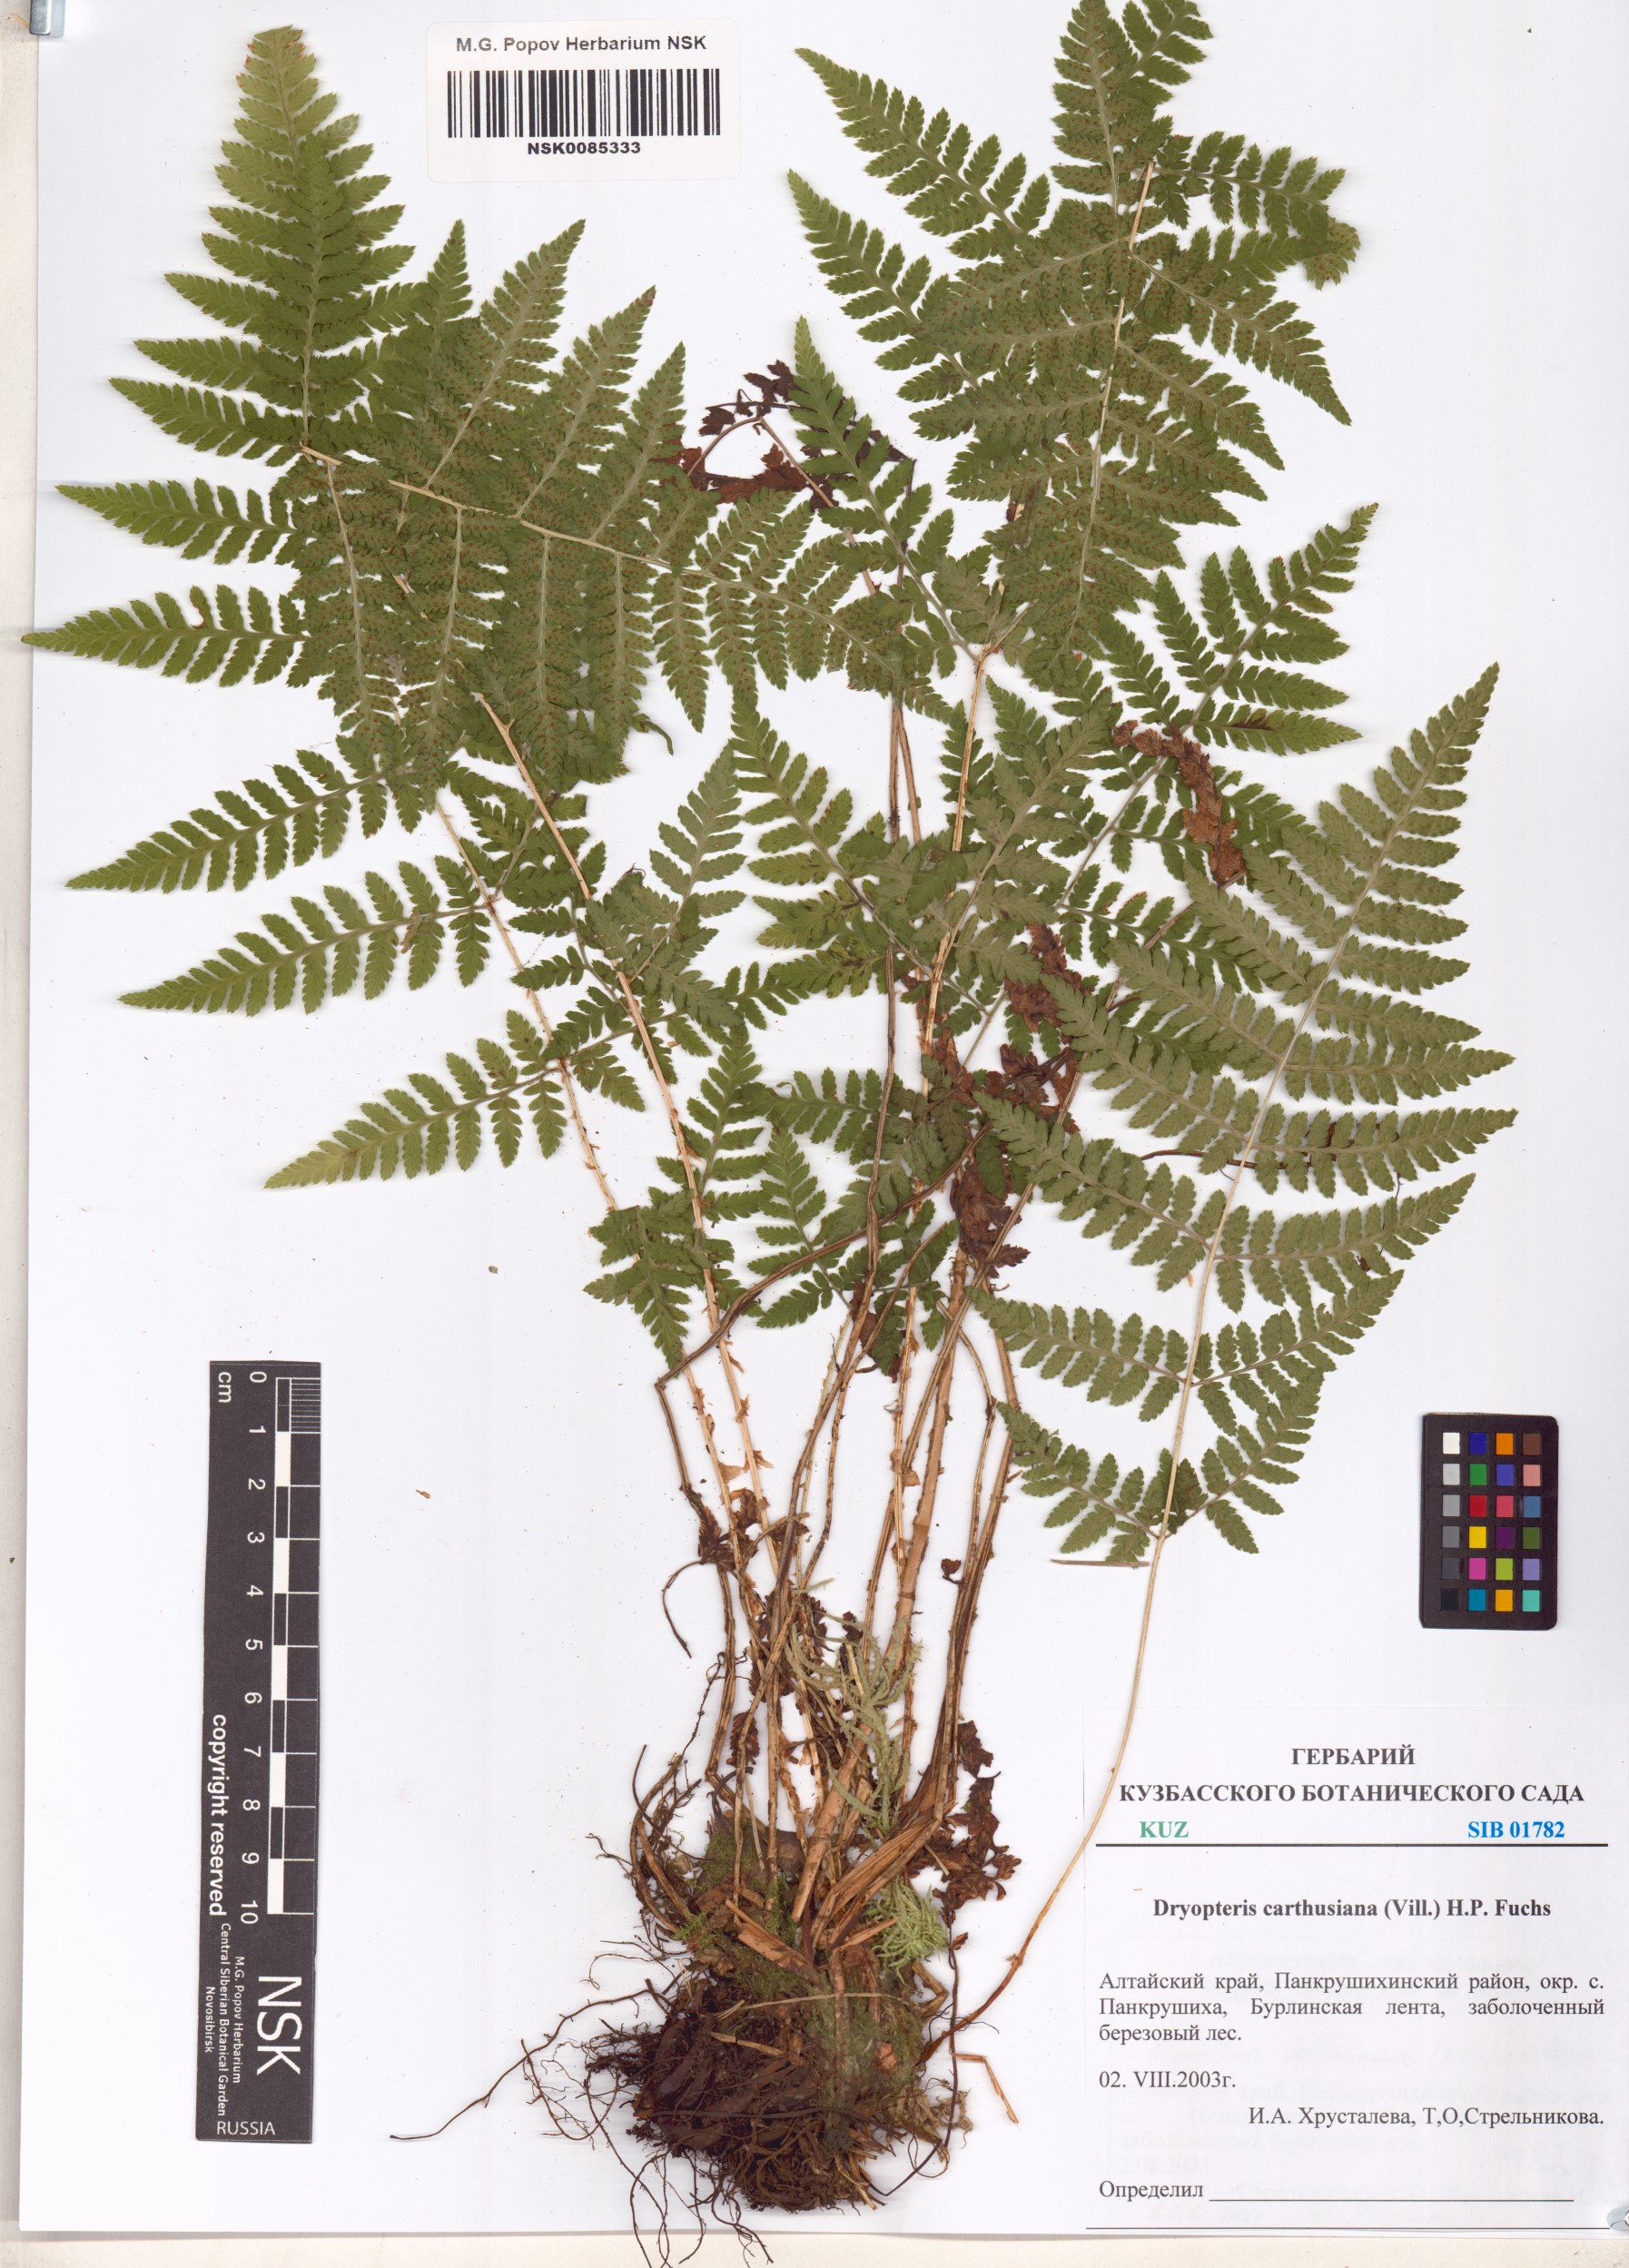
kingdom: Plantae
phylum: Tracheophyta
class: Polypodiopsida
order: Polypodiales
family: Dryopteridaceae
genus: Dryopteris
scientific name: Dryopteris carthusiana
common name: Narrow buckler-fern
